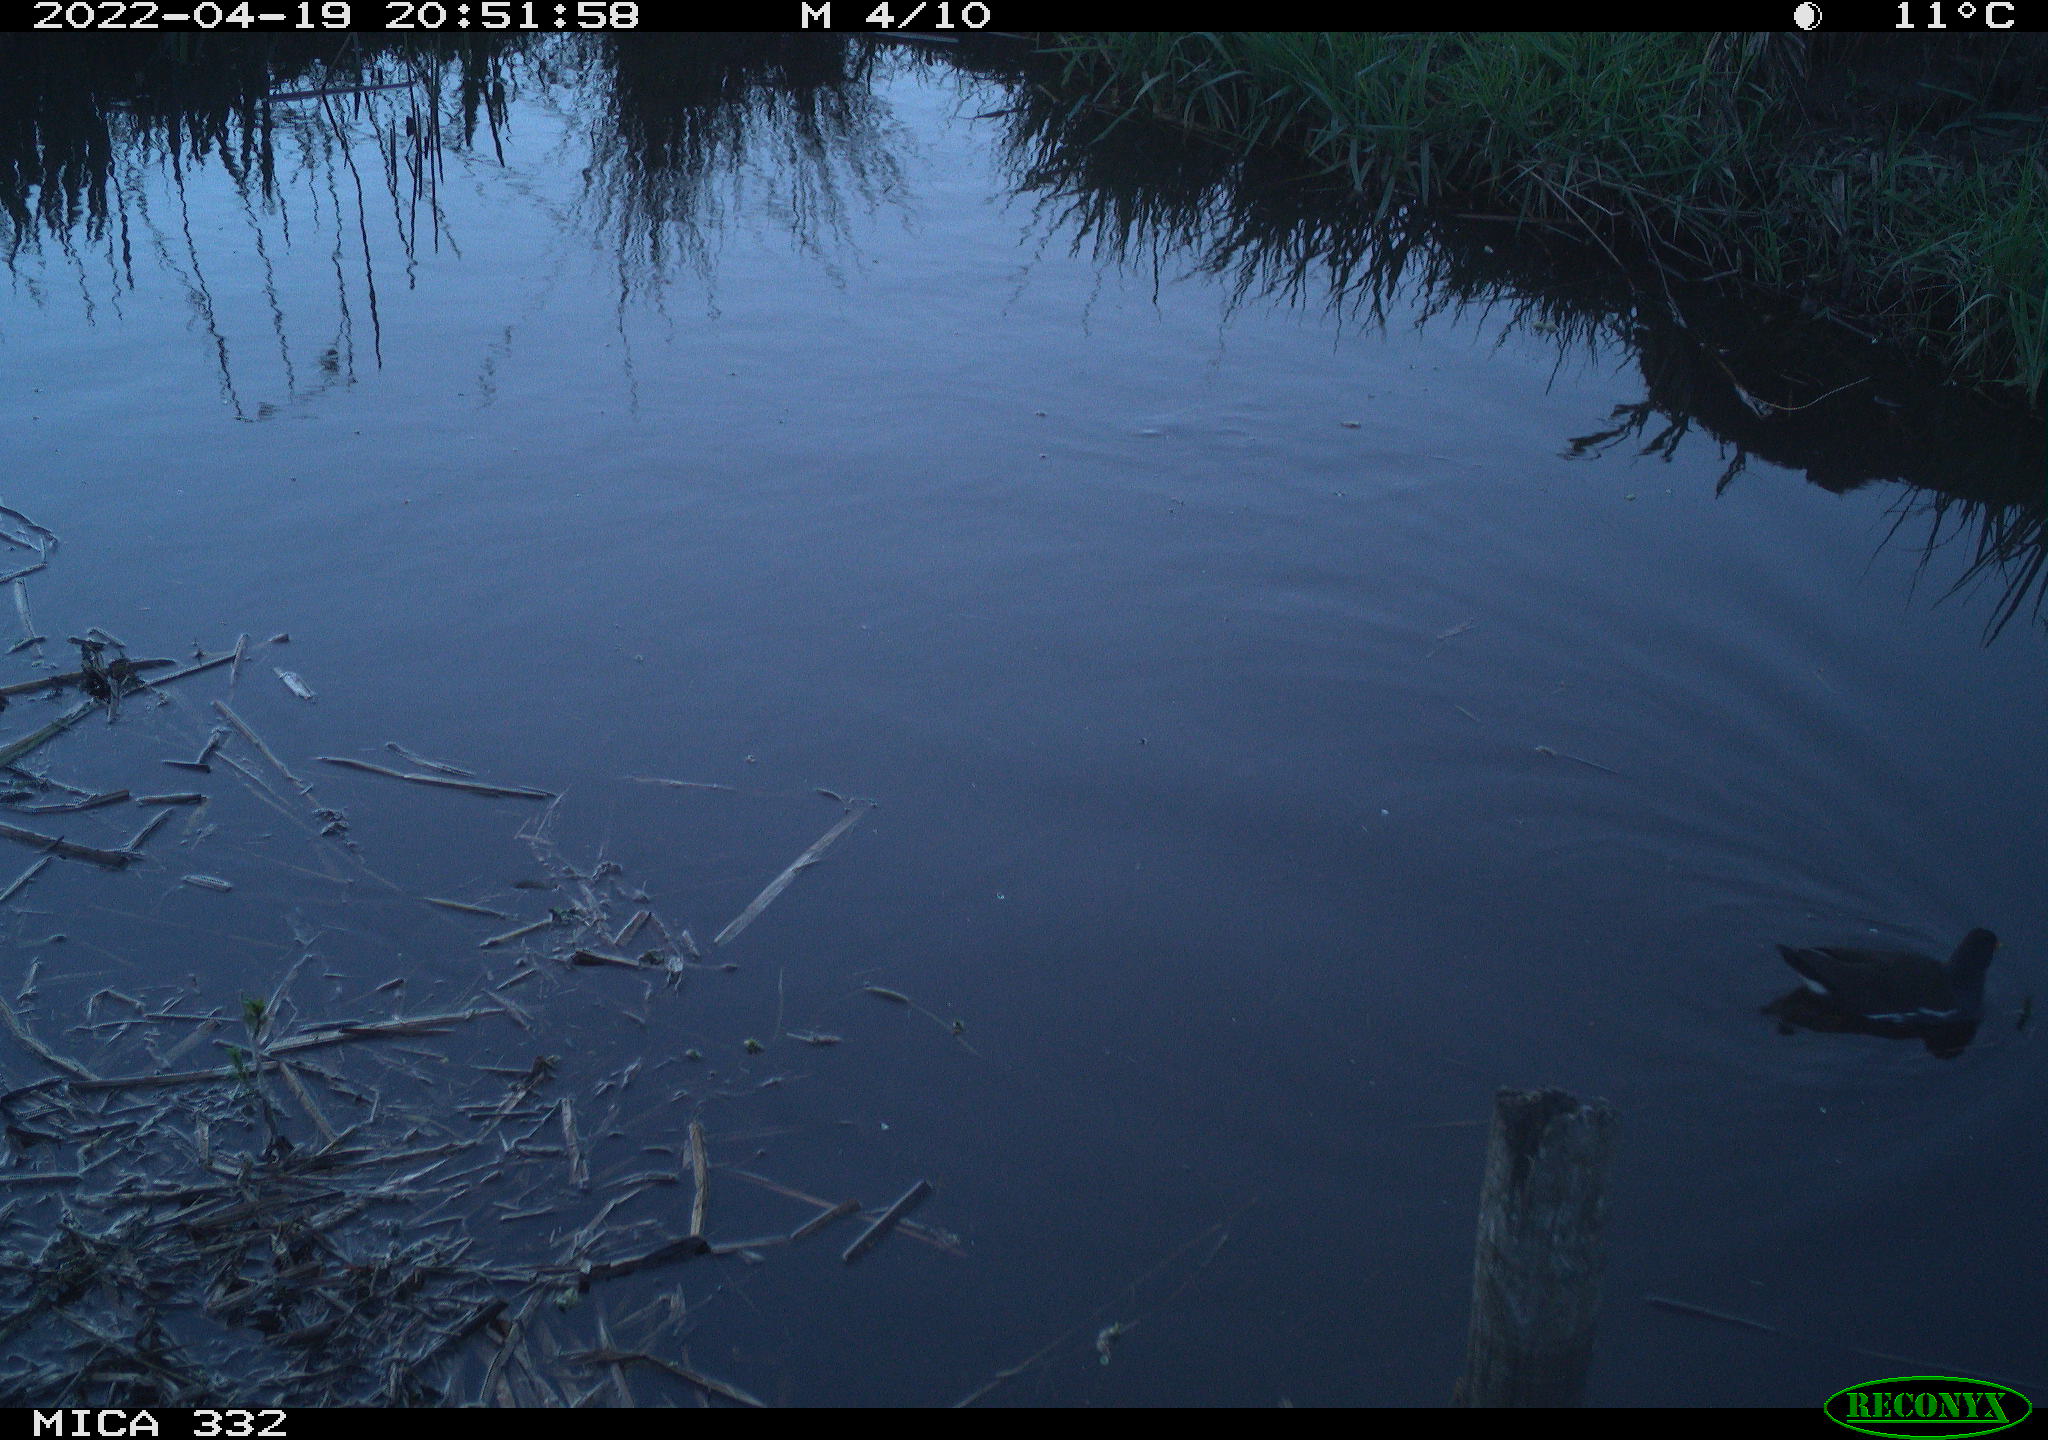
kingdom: Animalia
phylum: Chordata
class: Aves
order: Gruiformes
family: Rallidae
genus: Gallinula
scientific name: Gallinula chloropus
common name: Common moorhen
